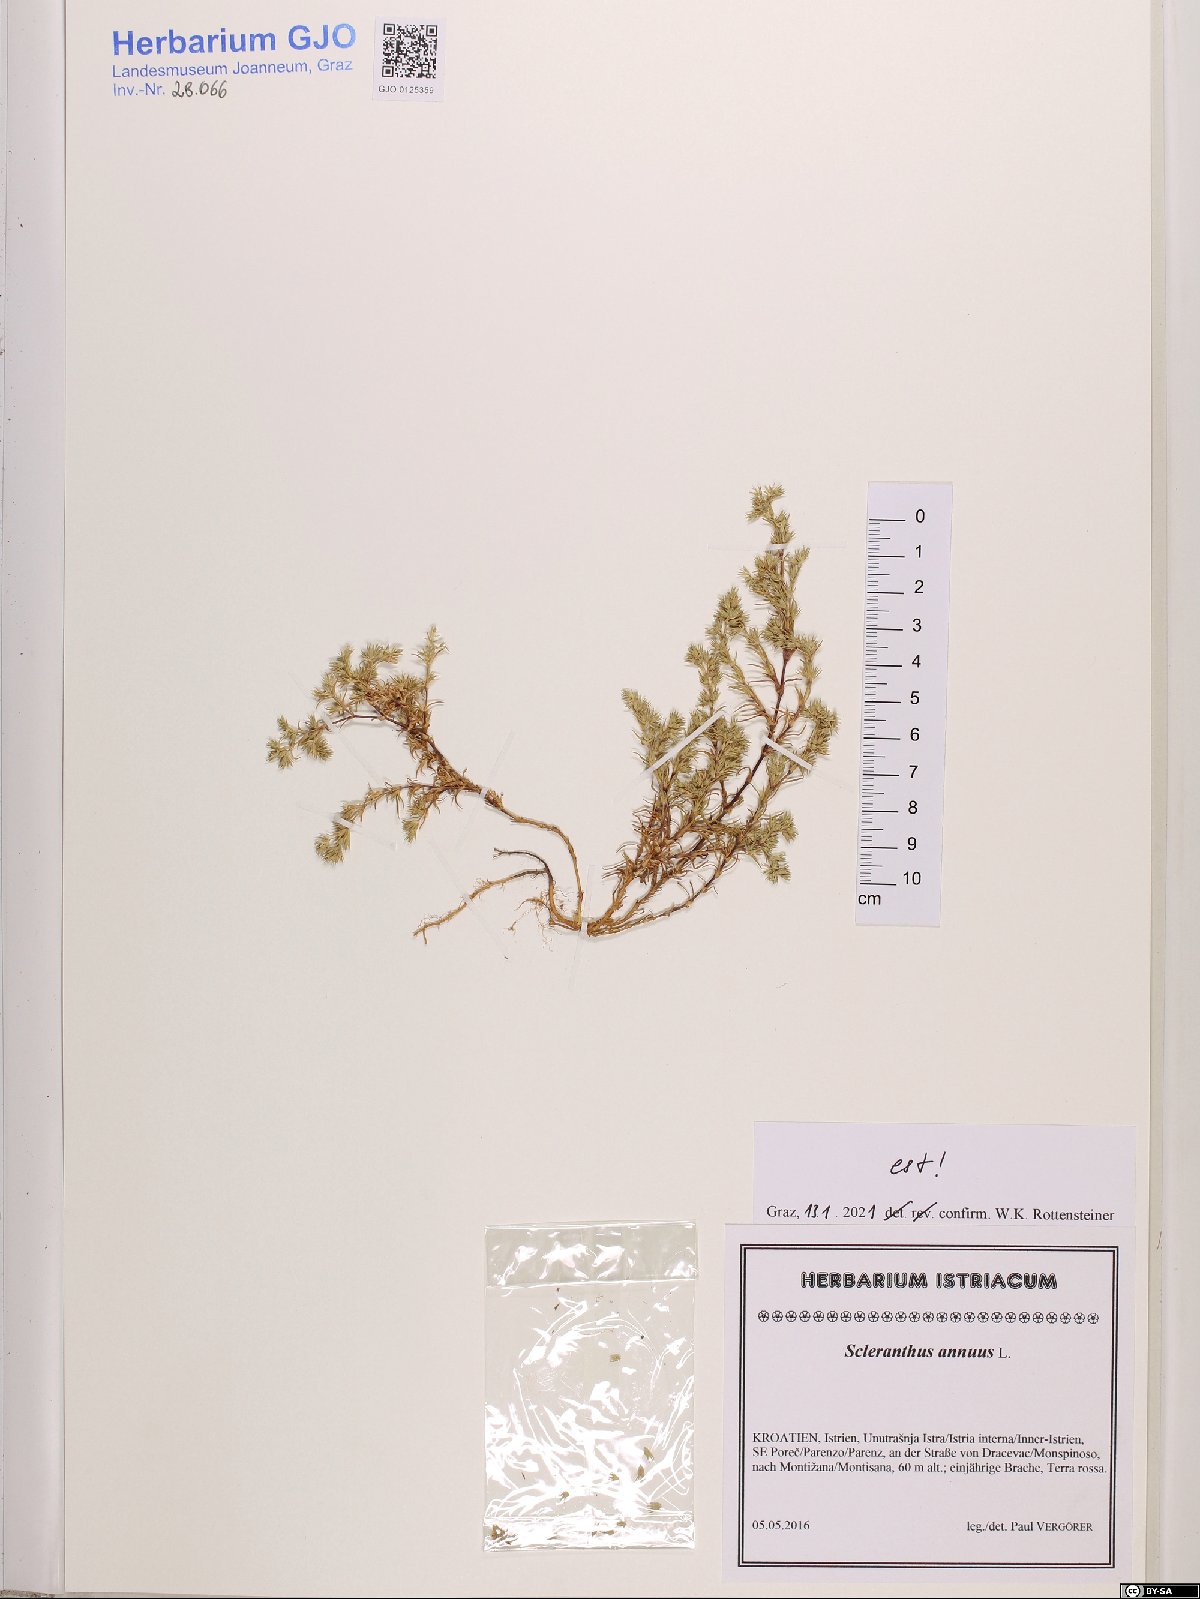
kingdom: Plantae
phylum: Tracheophyta
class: Magnoliopsida
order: Caryophyllales
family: Caryophyllaceae
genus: Scleranthus
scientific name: Scleranthus annuus
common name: Annual knawel
